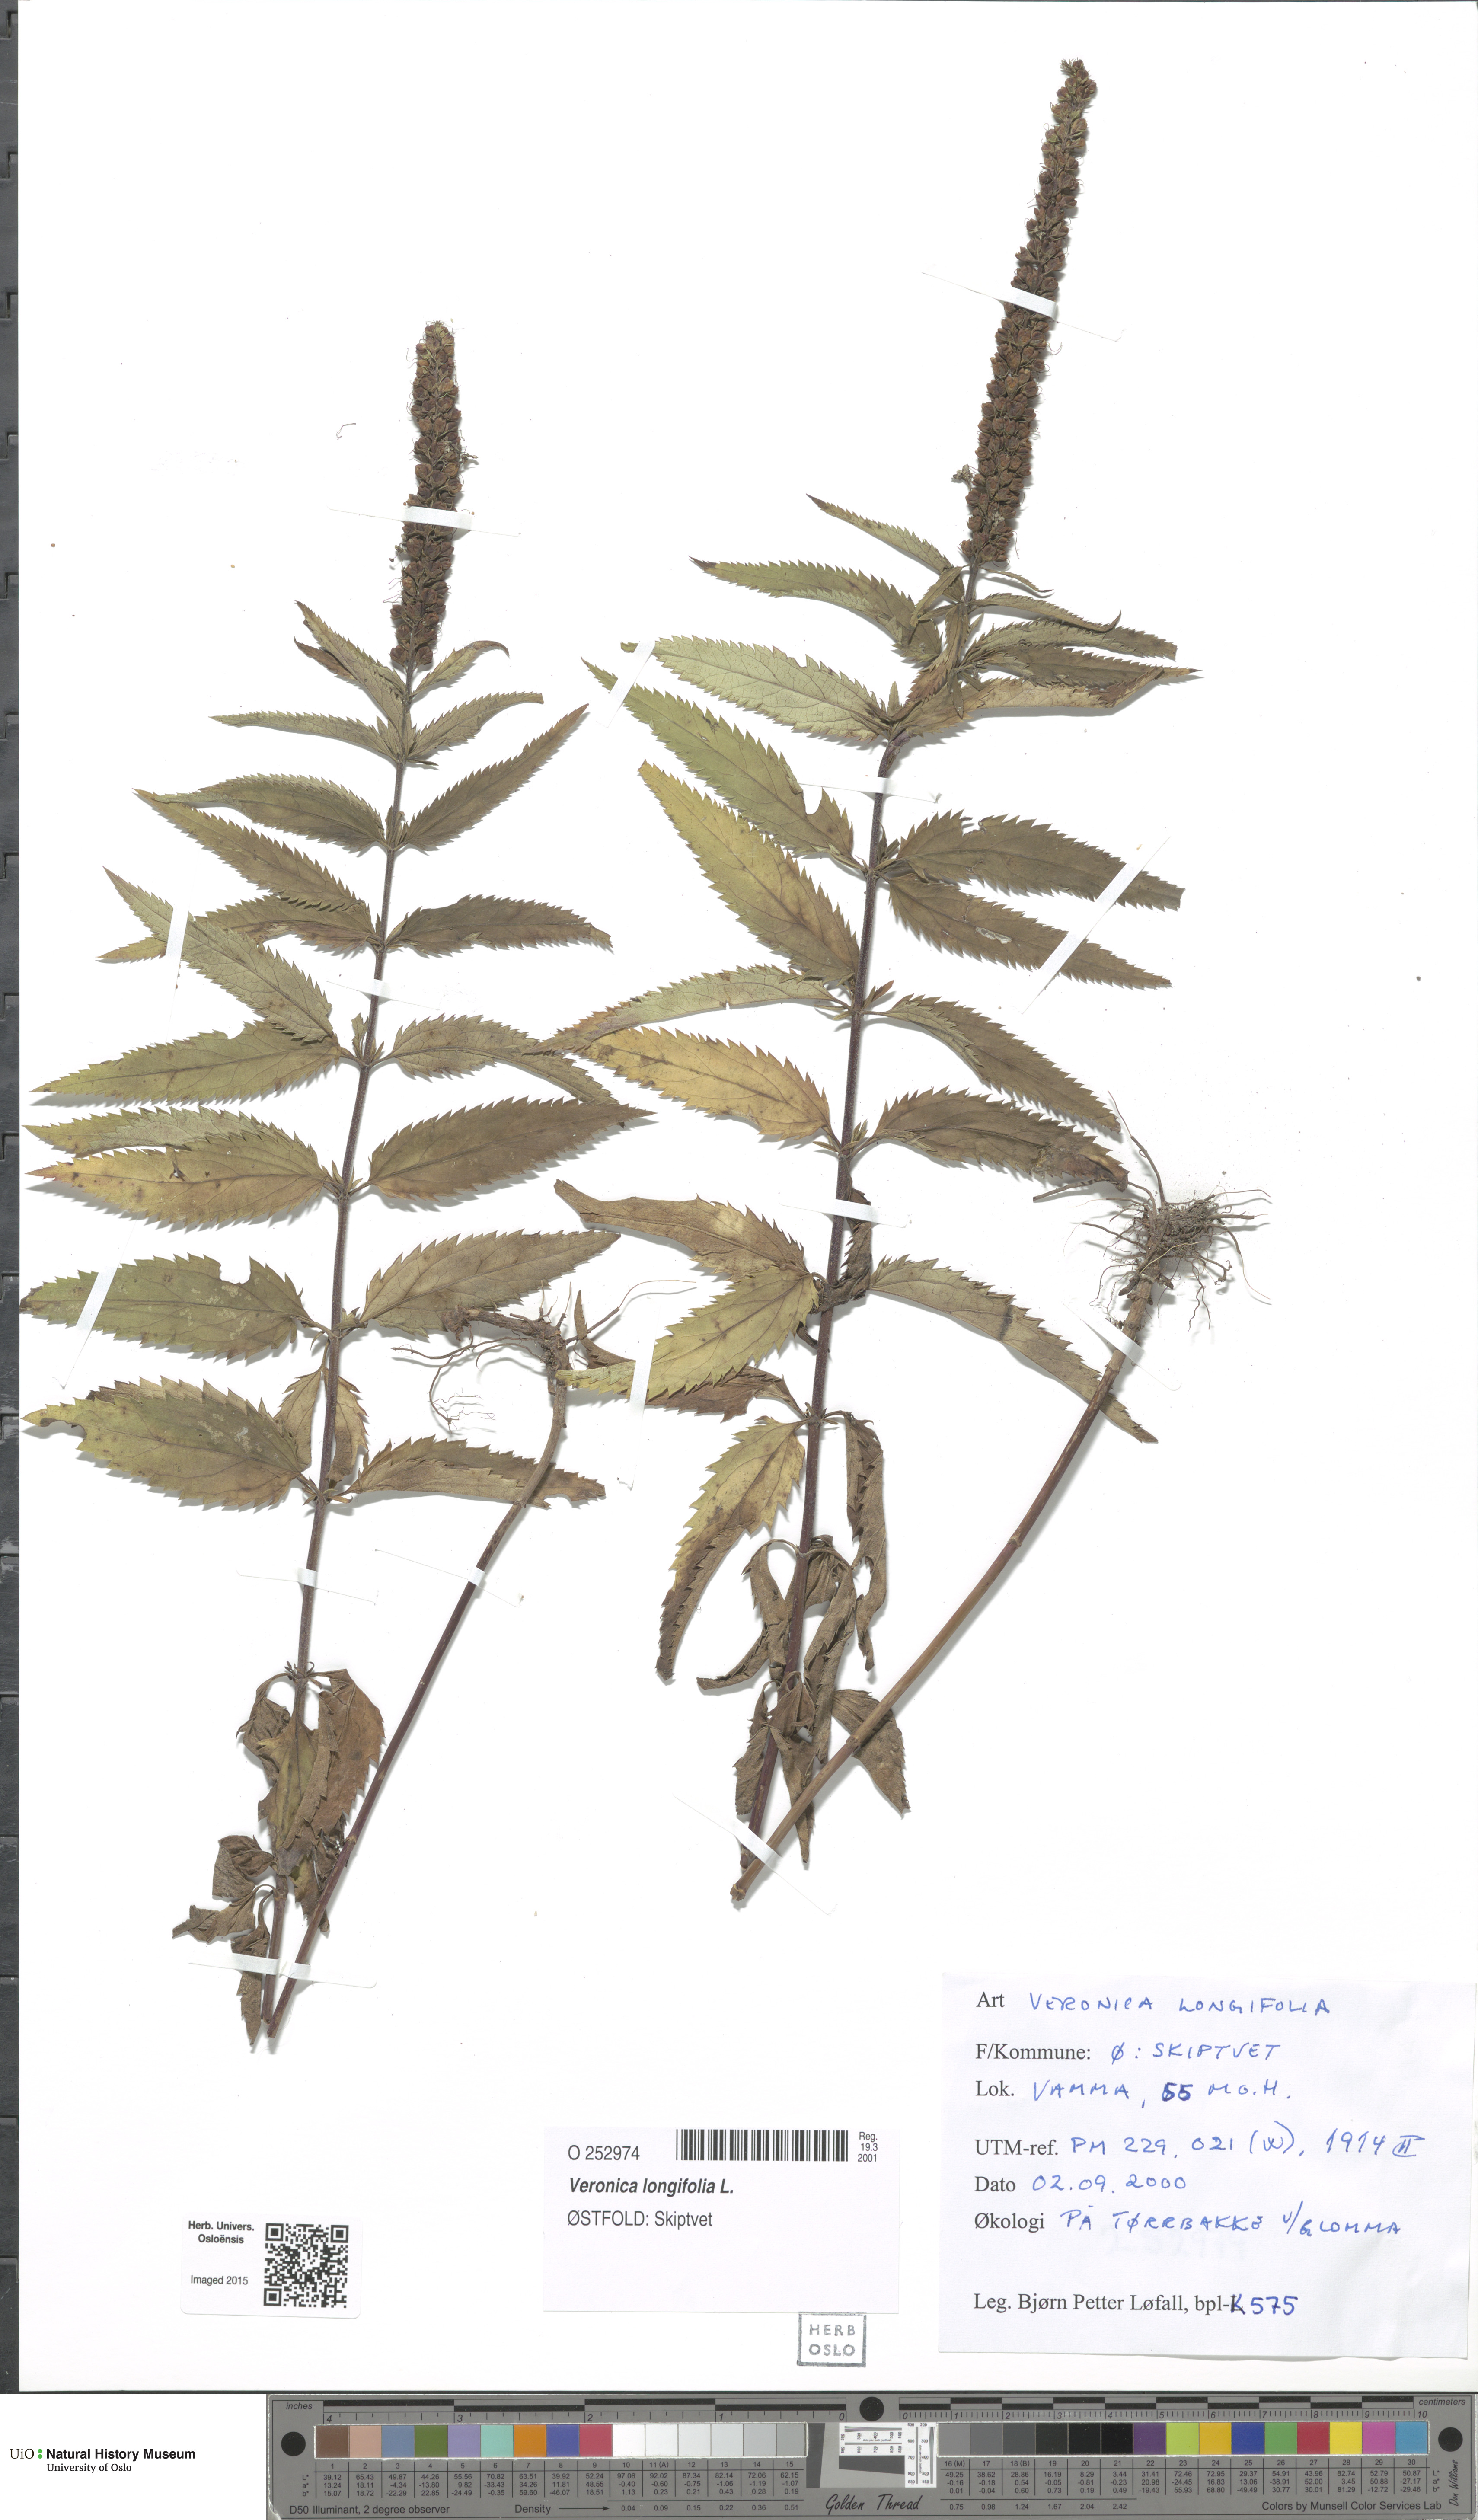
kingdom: Plantae
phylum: Tracheophyta
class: Magnoliopsida
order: Lamiales
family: Plantaginaceae
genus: Veronica
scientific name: Veronica longifolia
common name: Garden speedwell
